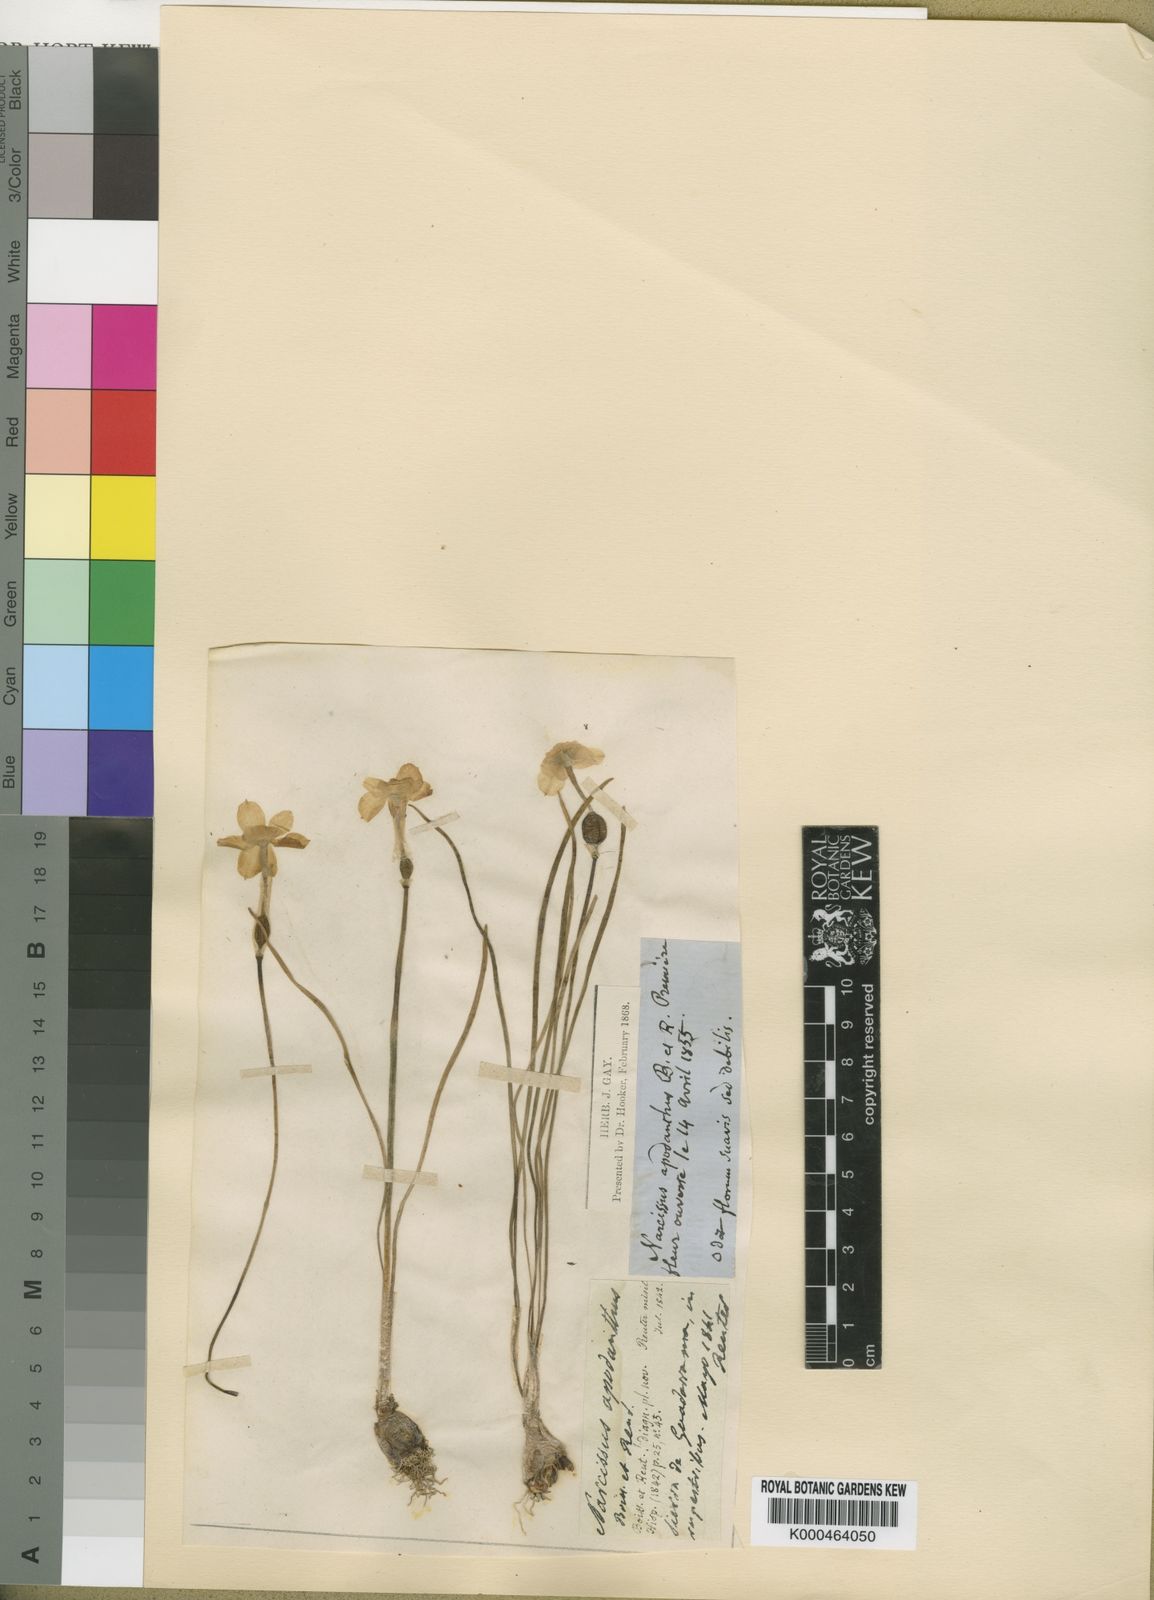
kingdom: Plantae
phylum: Tracheophyta
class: Liliopsida
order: Asparagales
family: Amaryllidaceae
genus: Narcissus
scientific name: Narcissus rupicola
